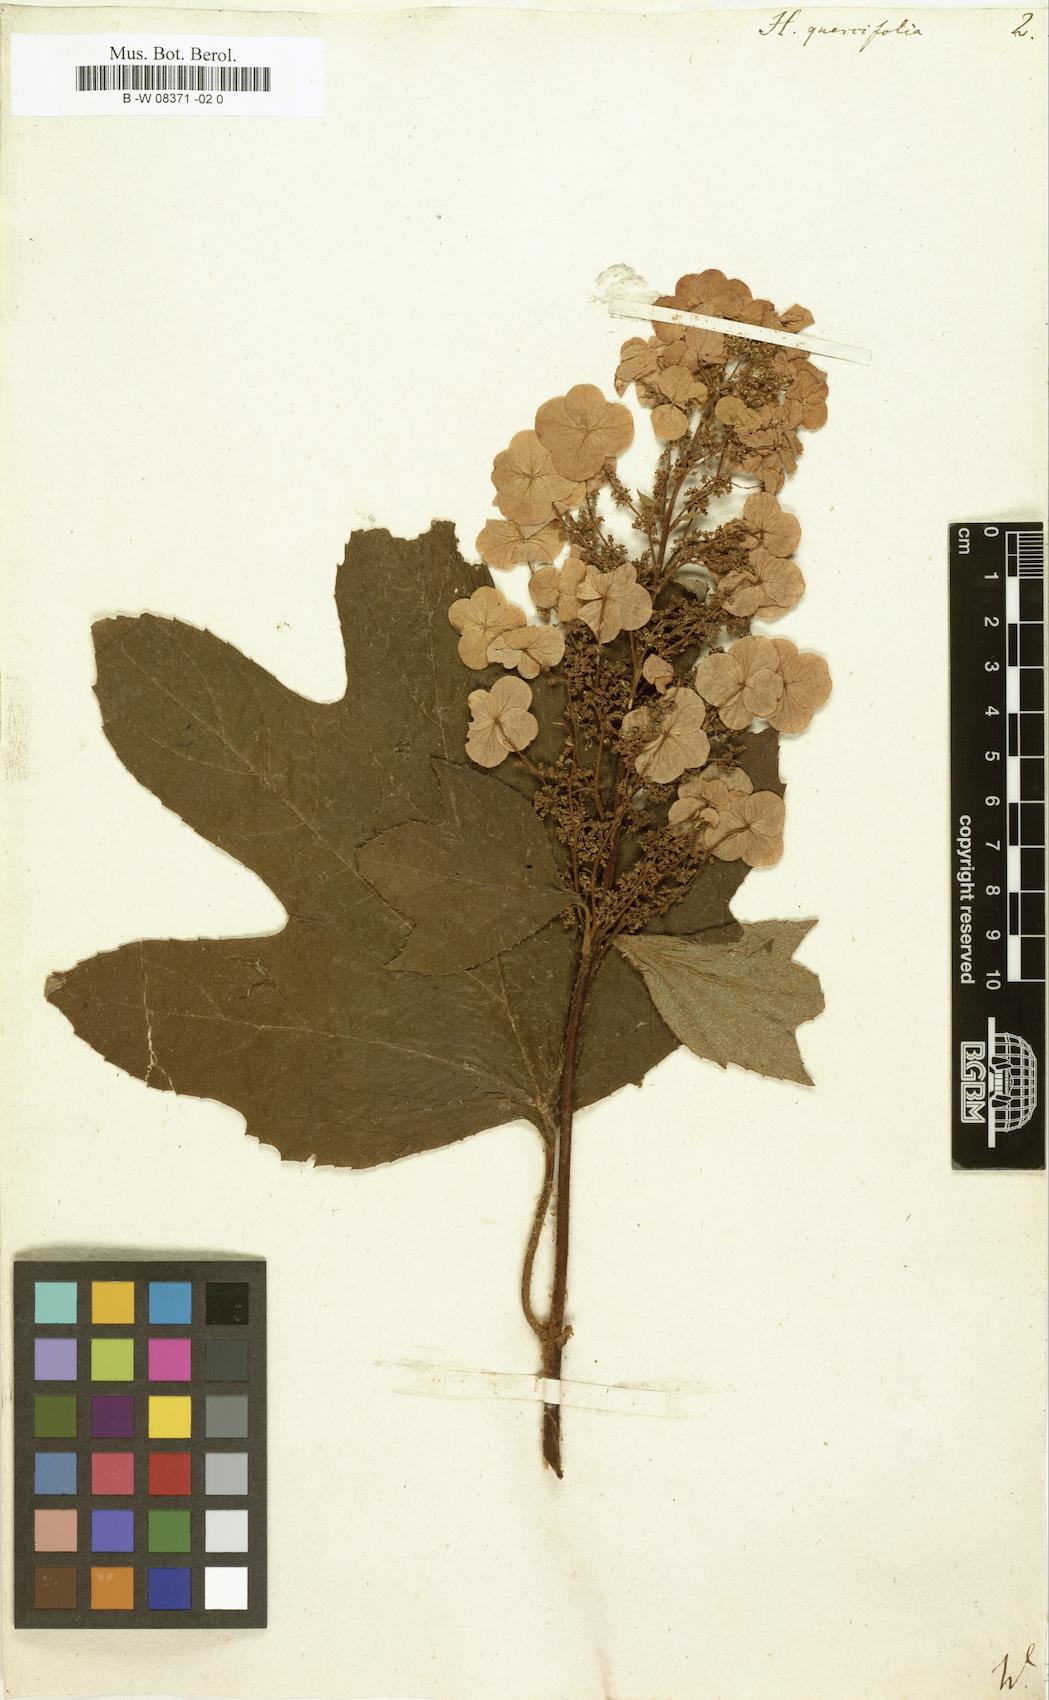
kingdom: Plantae
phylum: Tracheophyta
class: Magnoliopsida
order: Cornales
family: Hydrangeaceae
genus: Hydrangea
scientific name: Hydrangea quercifolia
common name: Oak-leaf hydrangea
